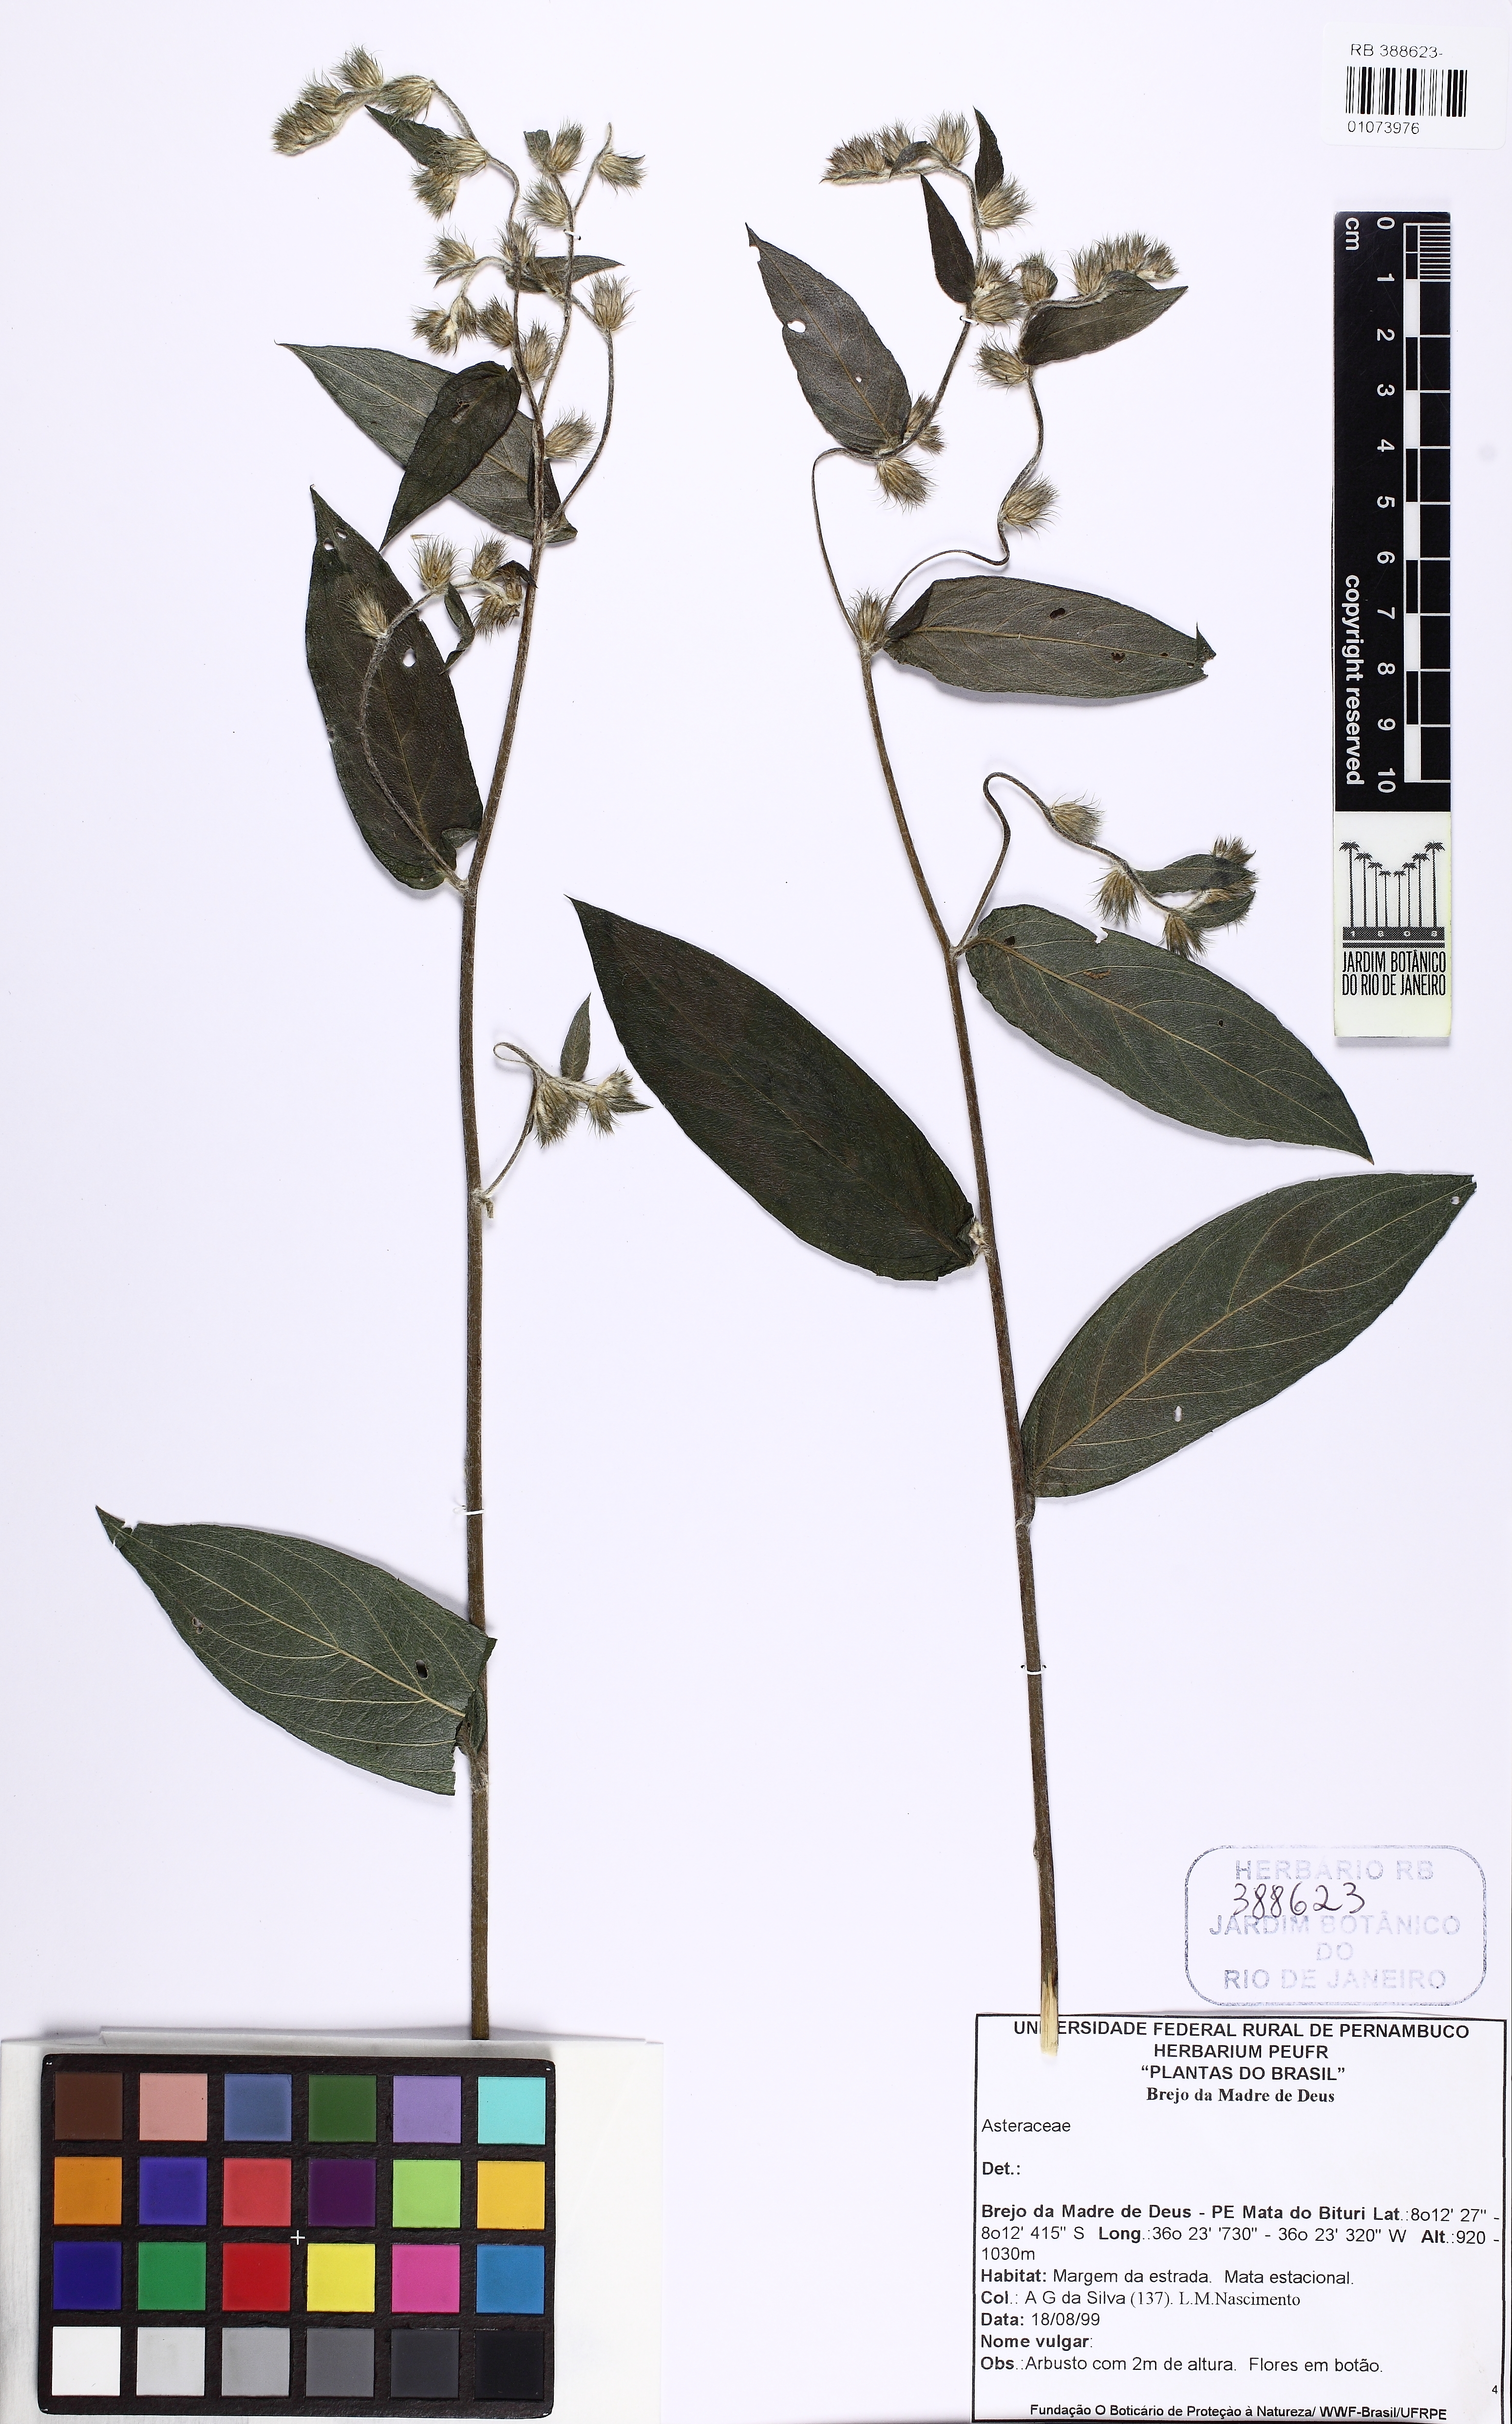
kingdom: Plantae
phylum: Tracheophyta
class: Magnoliopsida
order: Asterales
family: Asteraceae
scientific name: Asteraceae
